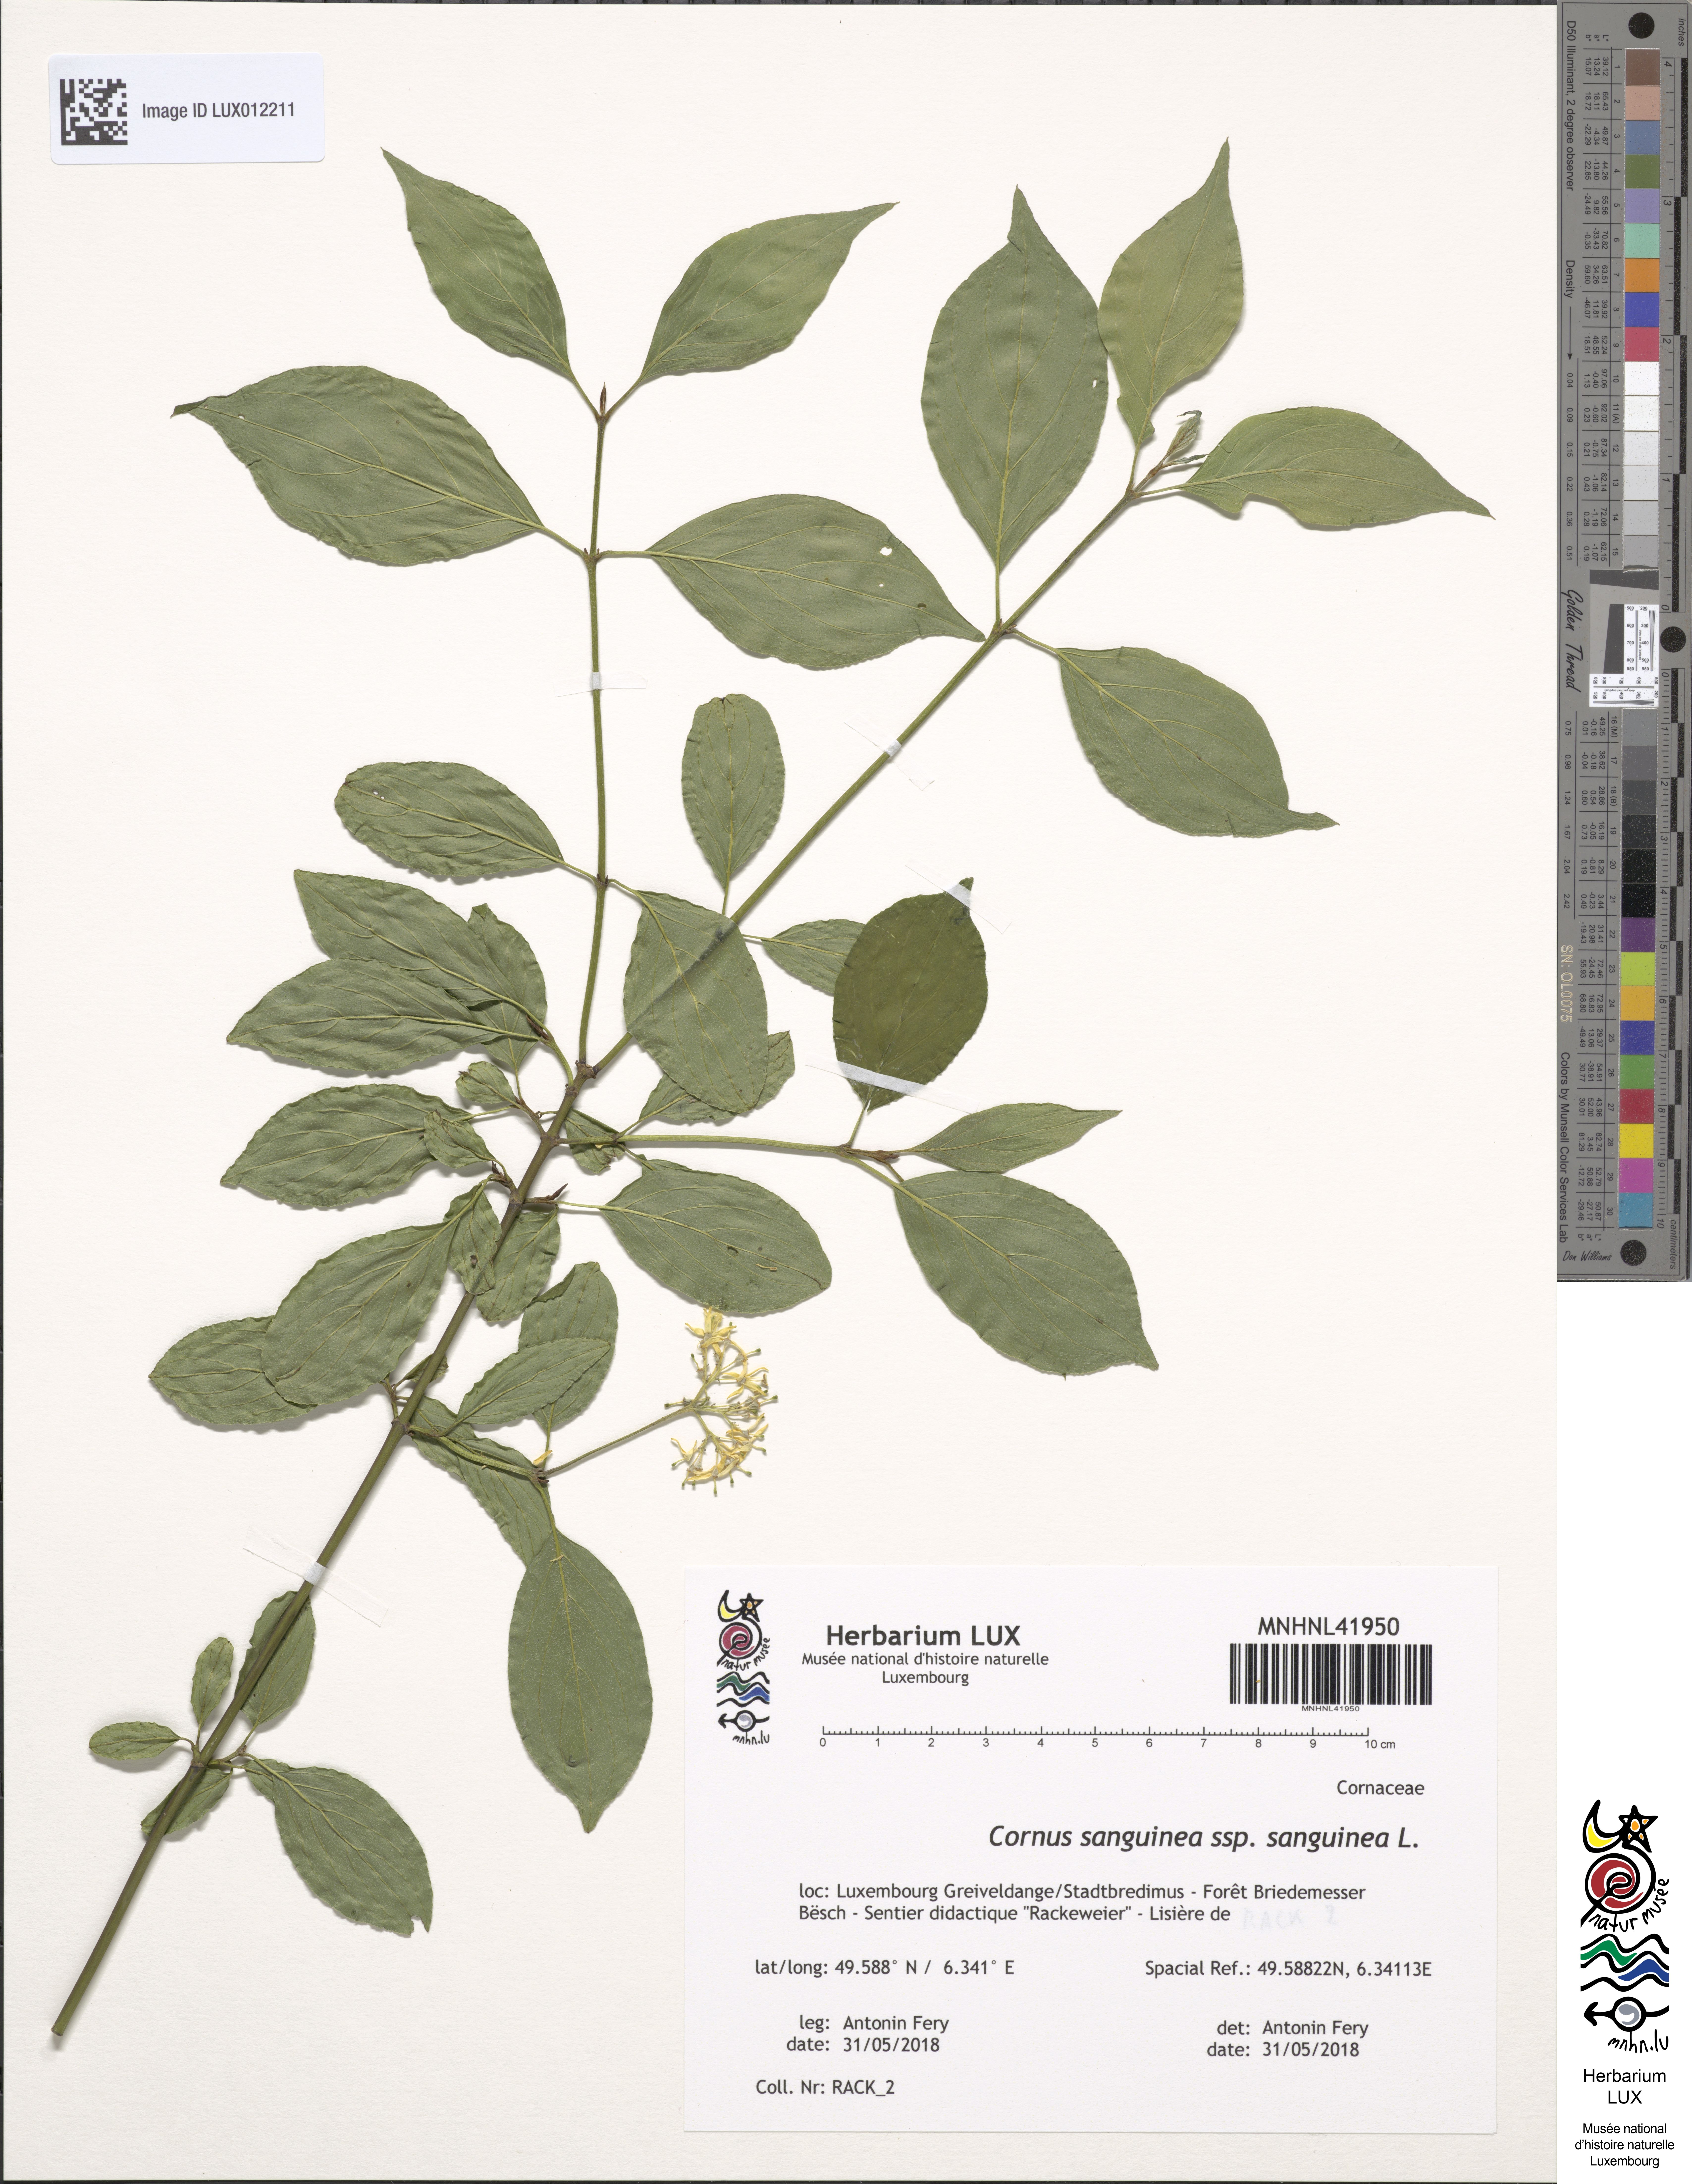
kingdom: Plantae
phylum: Tracheophyta
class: Magnoliopsida
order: Cornales
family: Cornaceae
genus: Cornus
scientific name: Cornus sanguinea
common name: Dogwood
